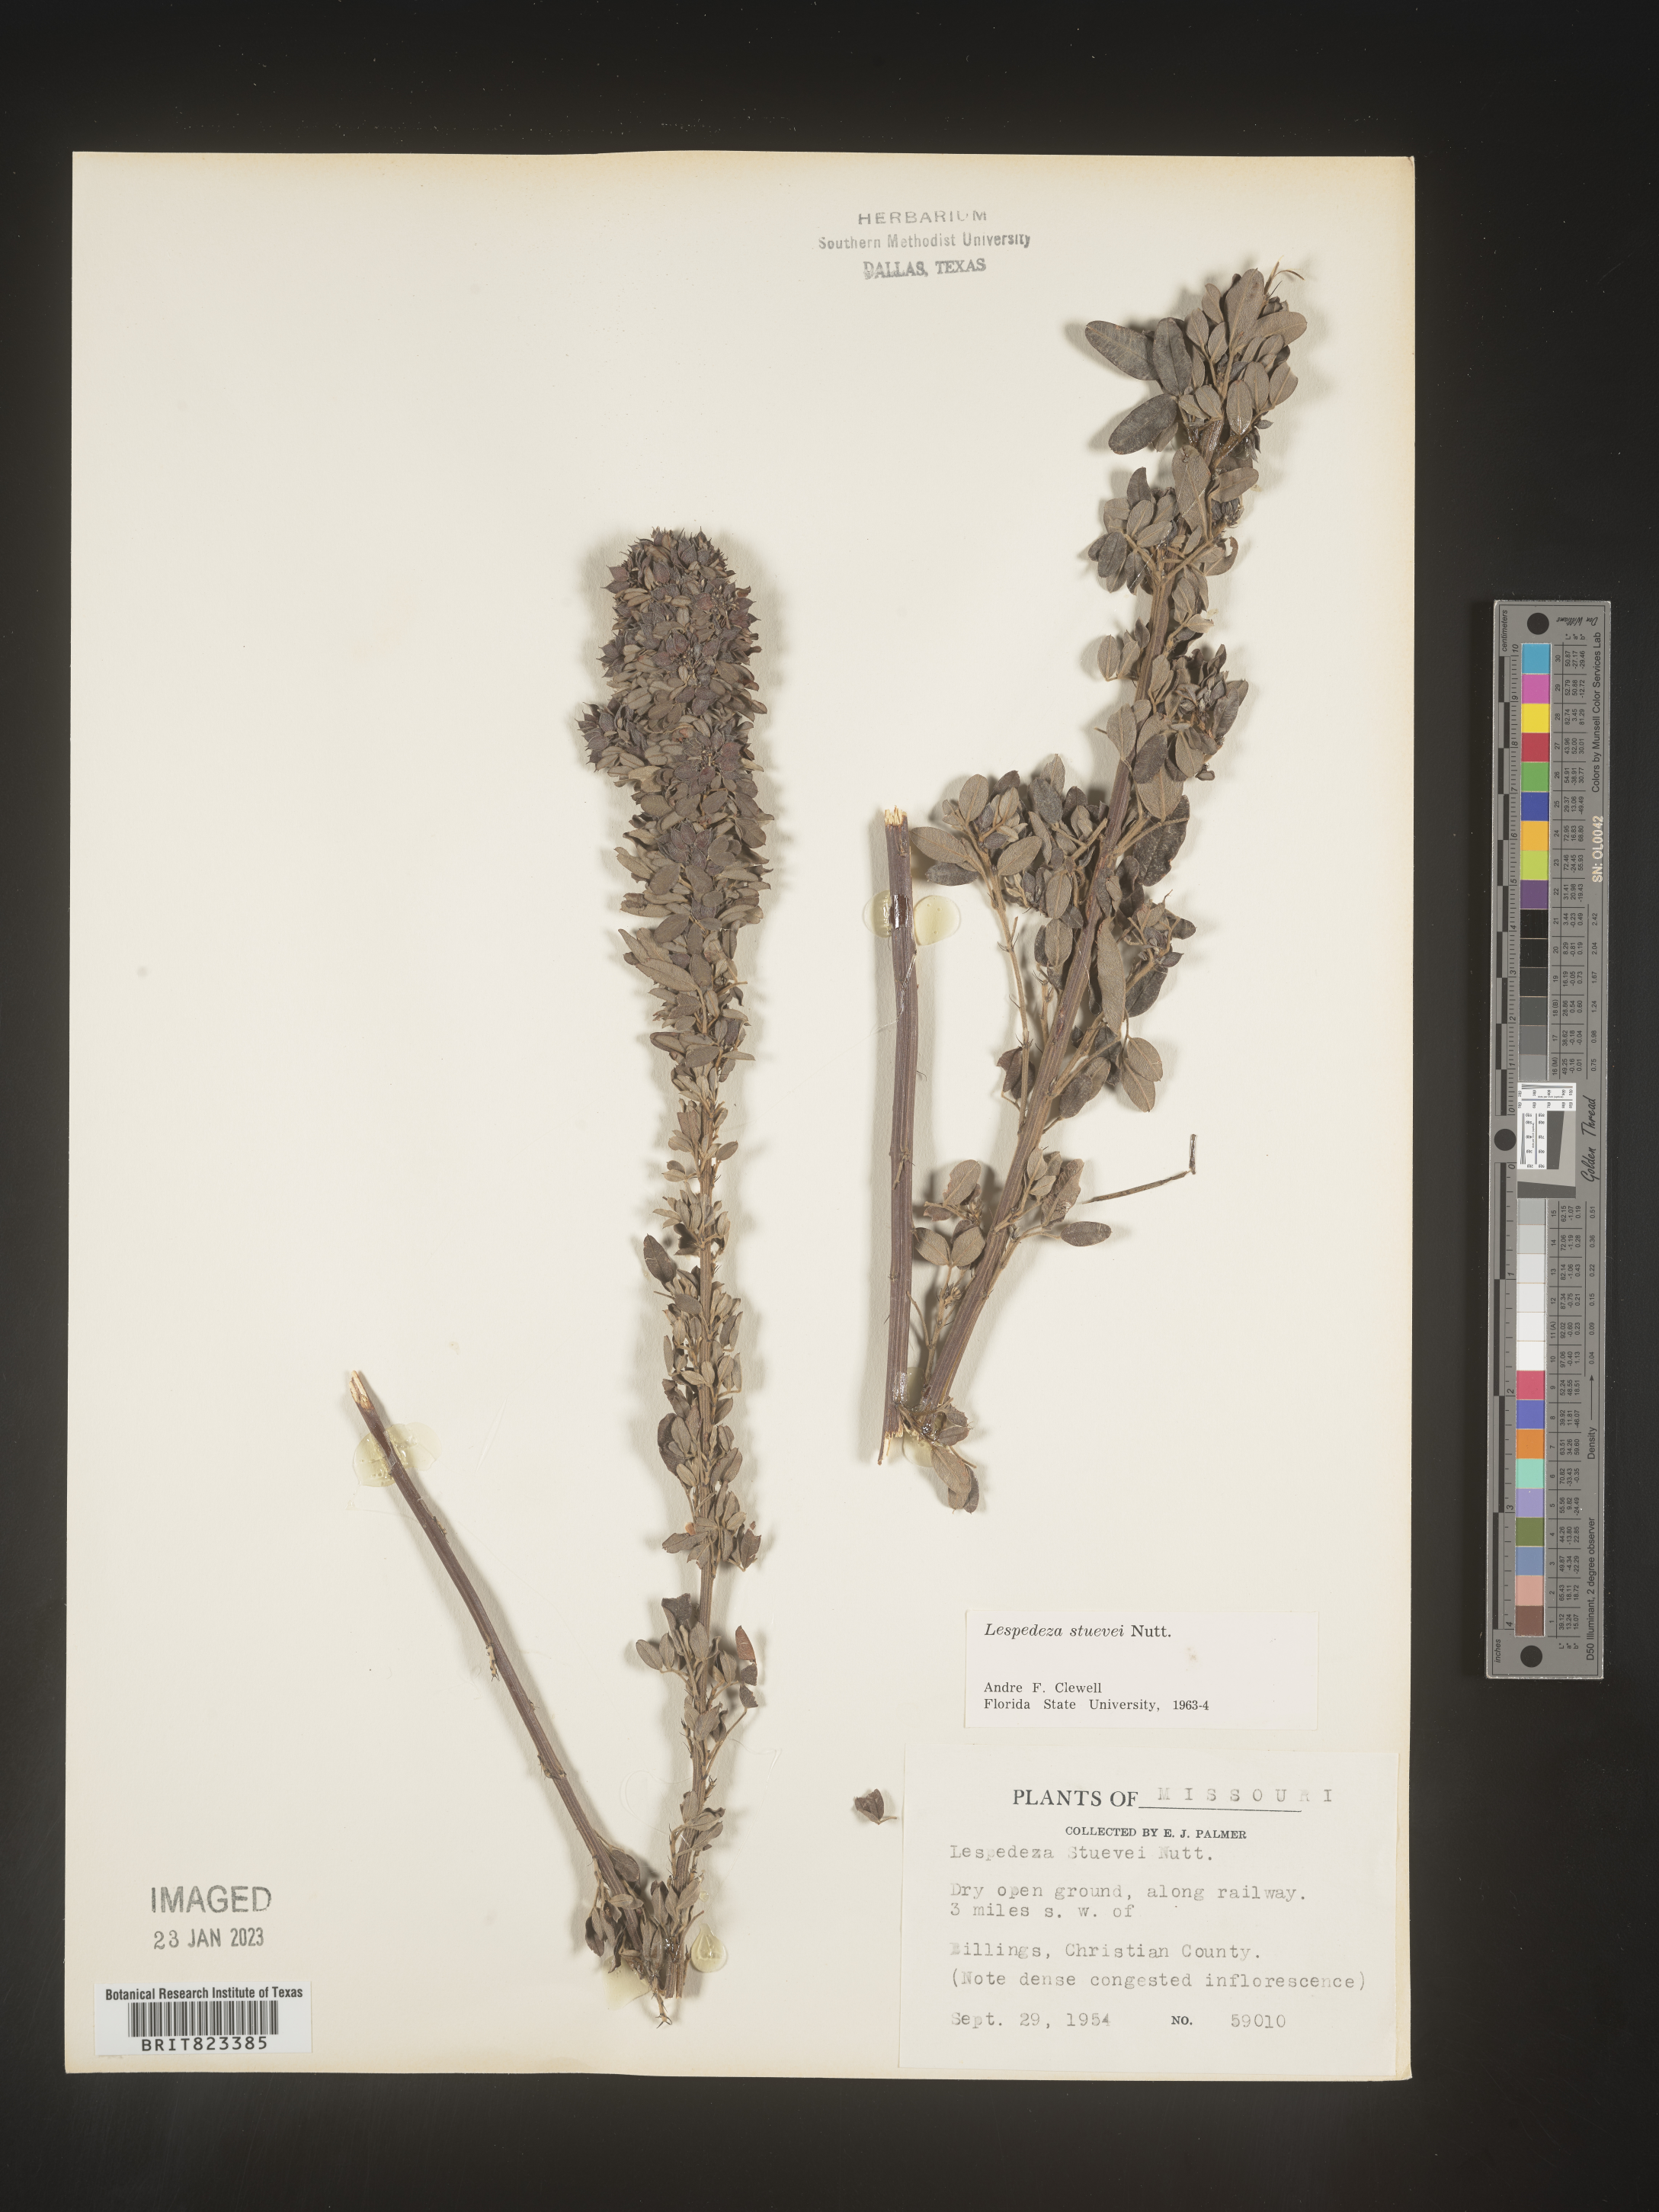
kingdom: Plantae
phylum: Tracheophyta
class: Magnoliopsida
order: Fabales
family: Fabaceae
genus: Lespedeza
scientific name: Lespedeza stuevei
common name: Tall bush-clover
